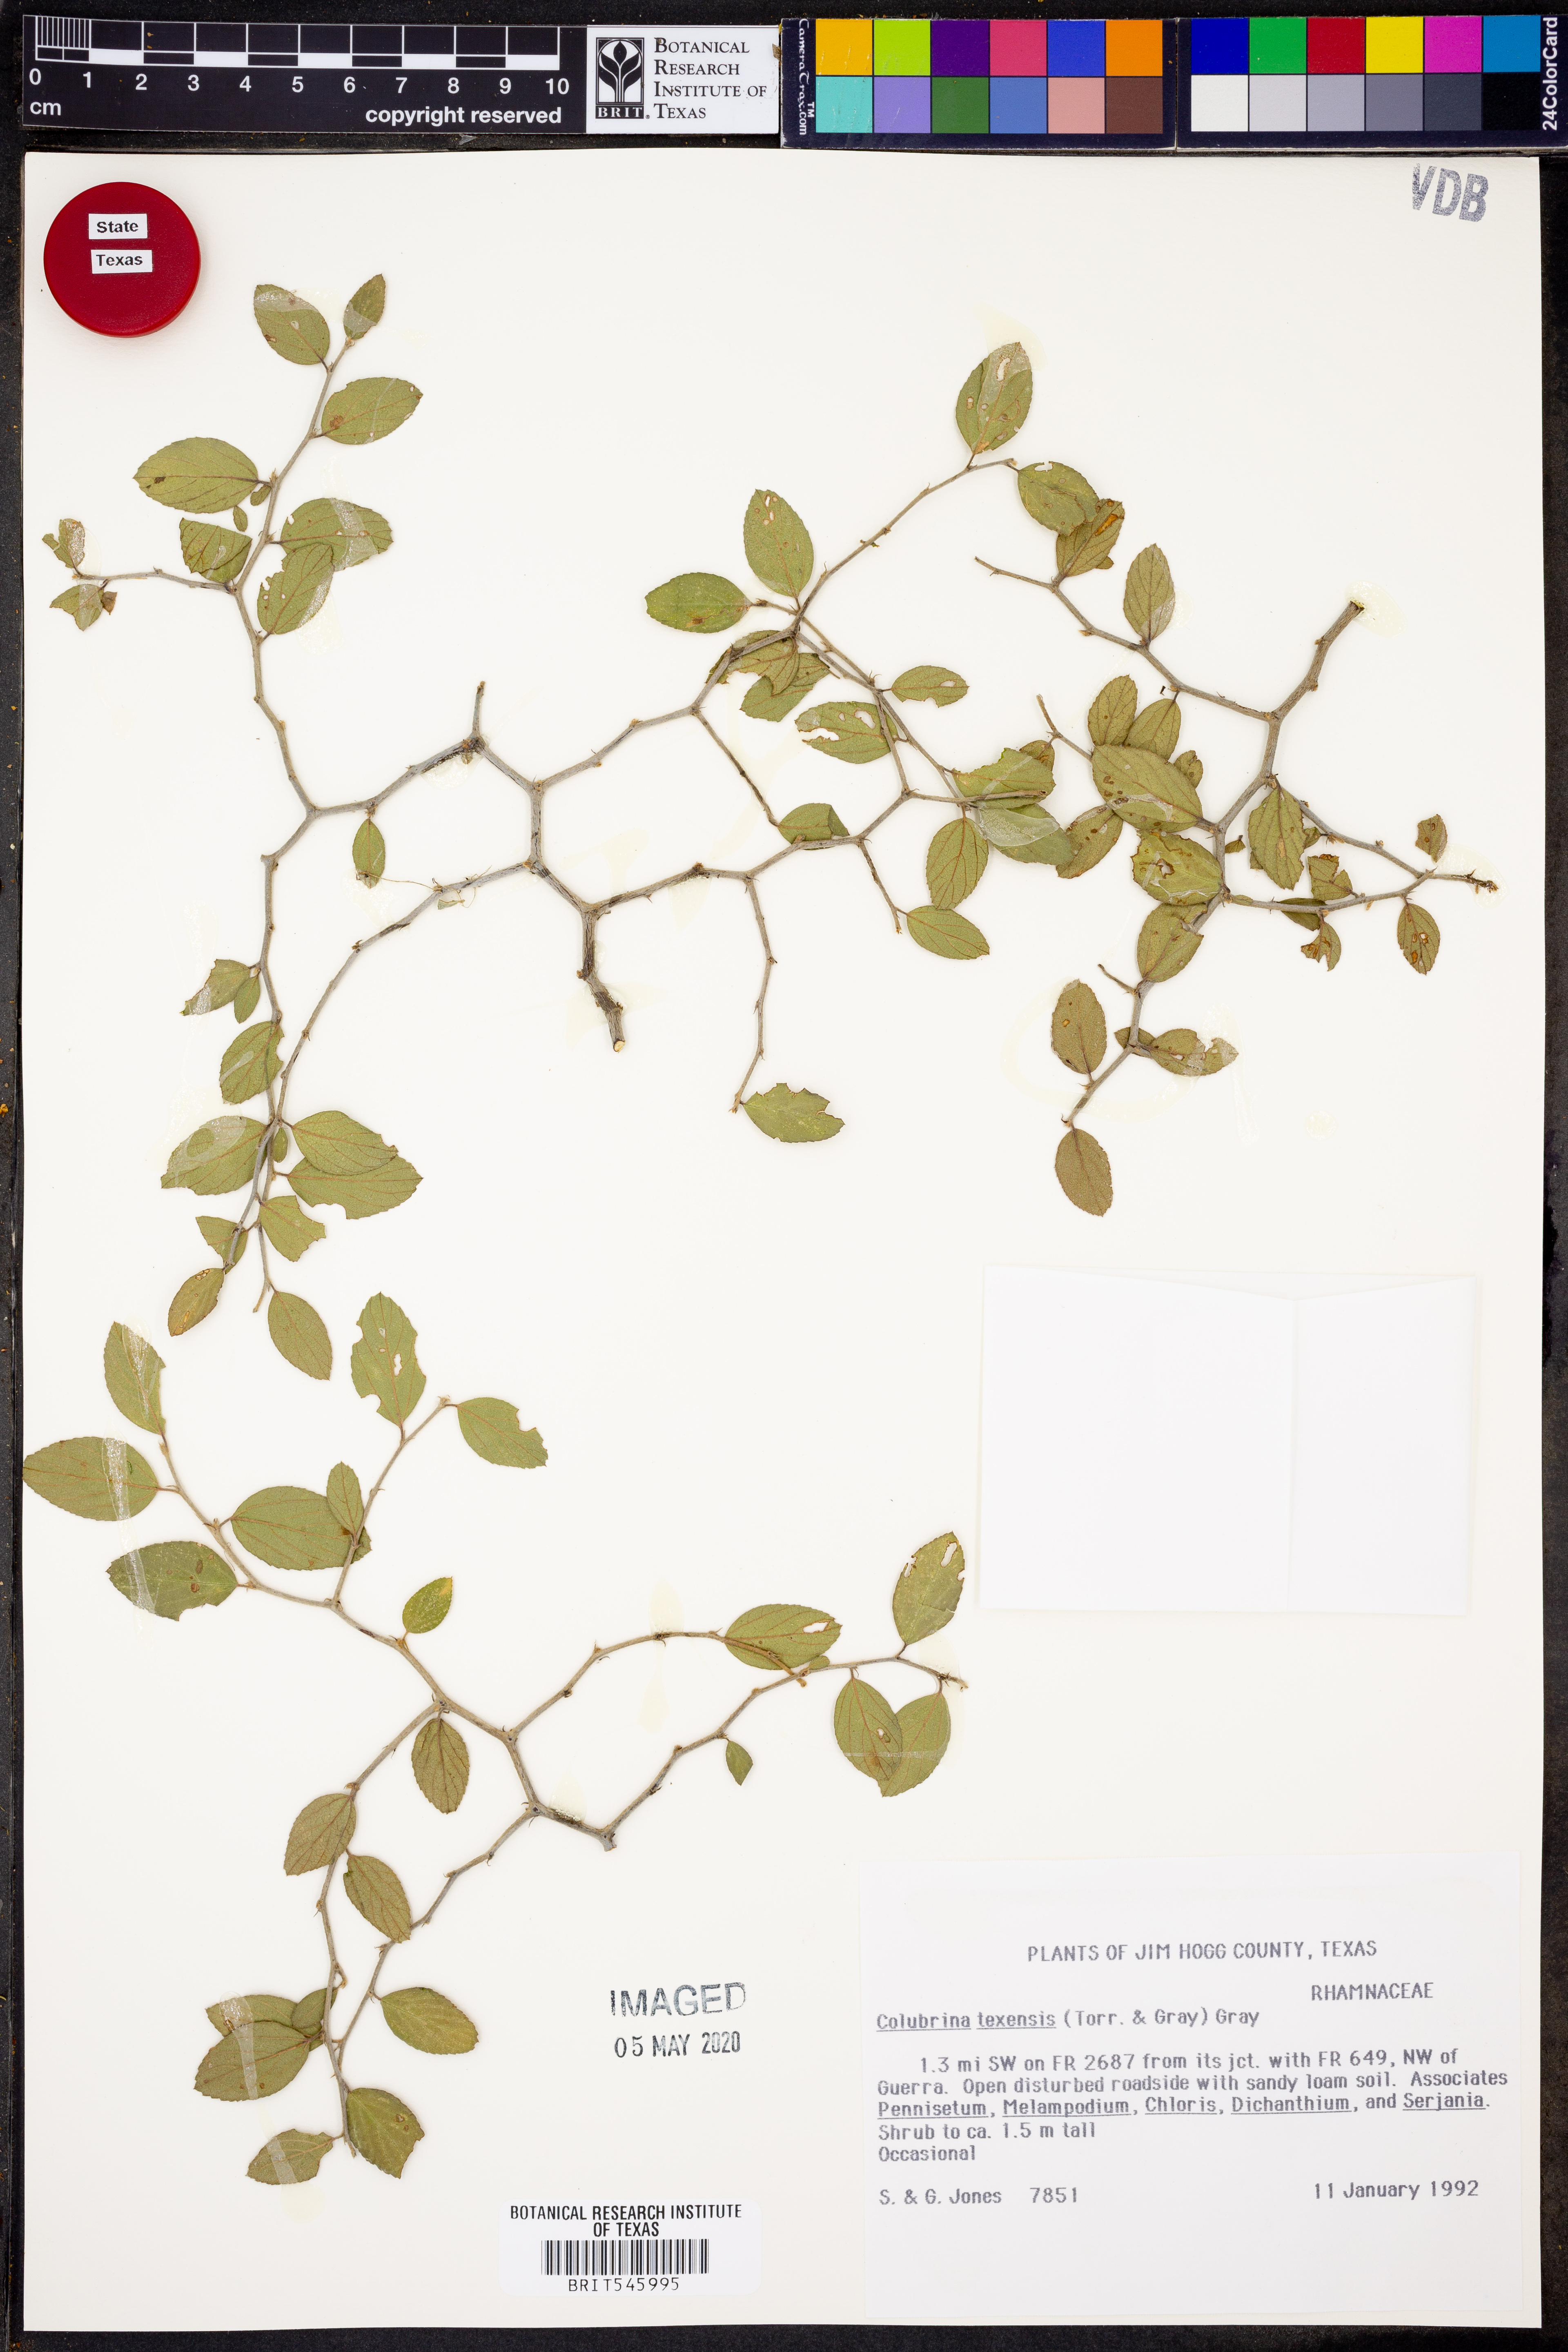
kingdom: Plantae
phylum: Tracheophyta
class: Magnoliopsida
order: Rosales
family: Rhamnaceae
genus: Colubrina
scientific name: Colubrina texensis
